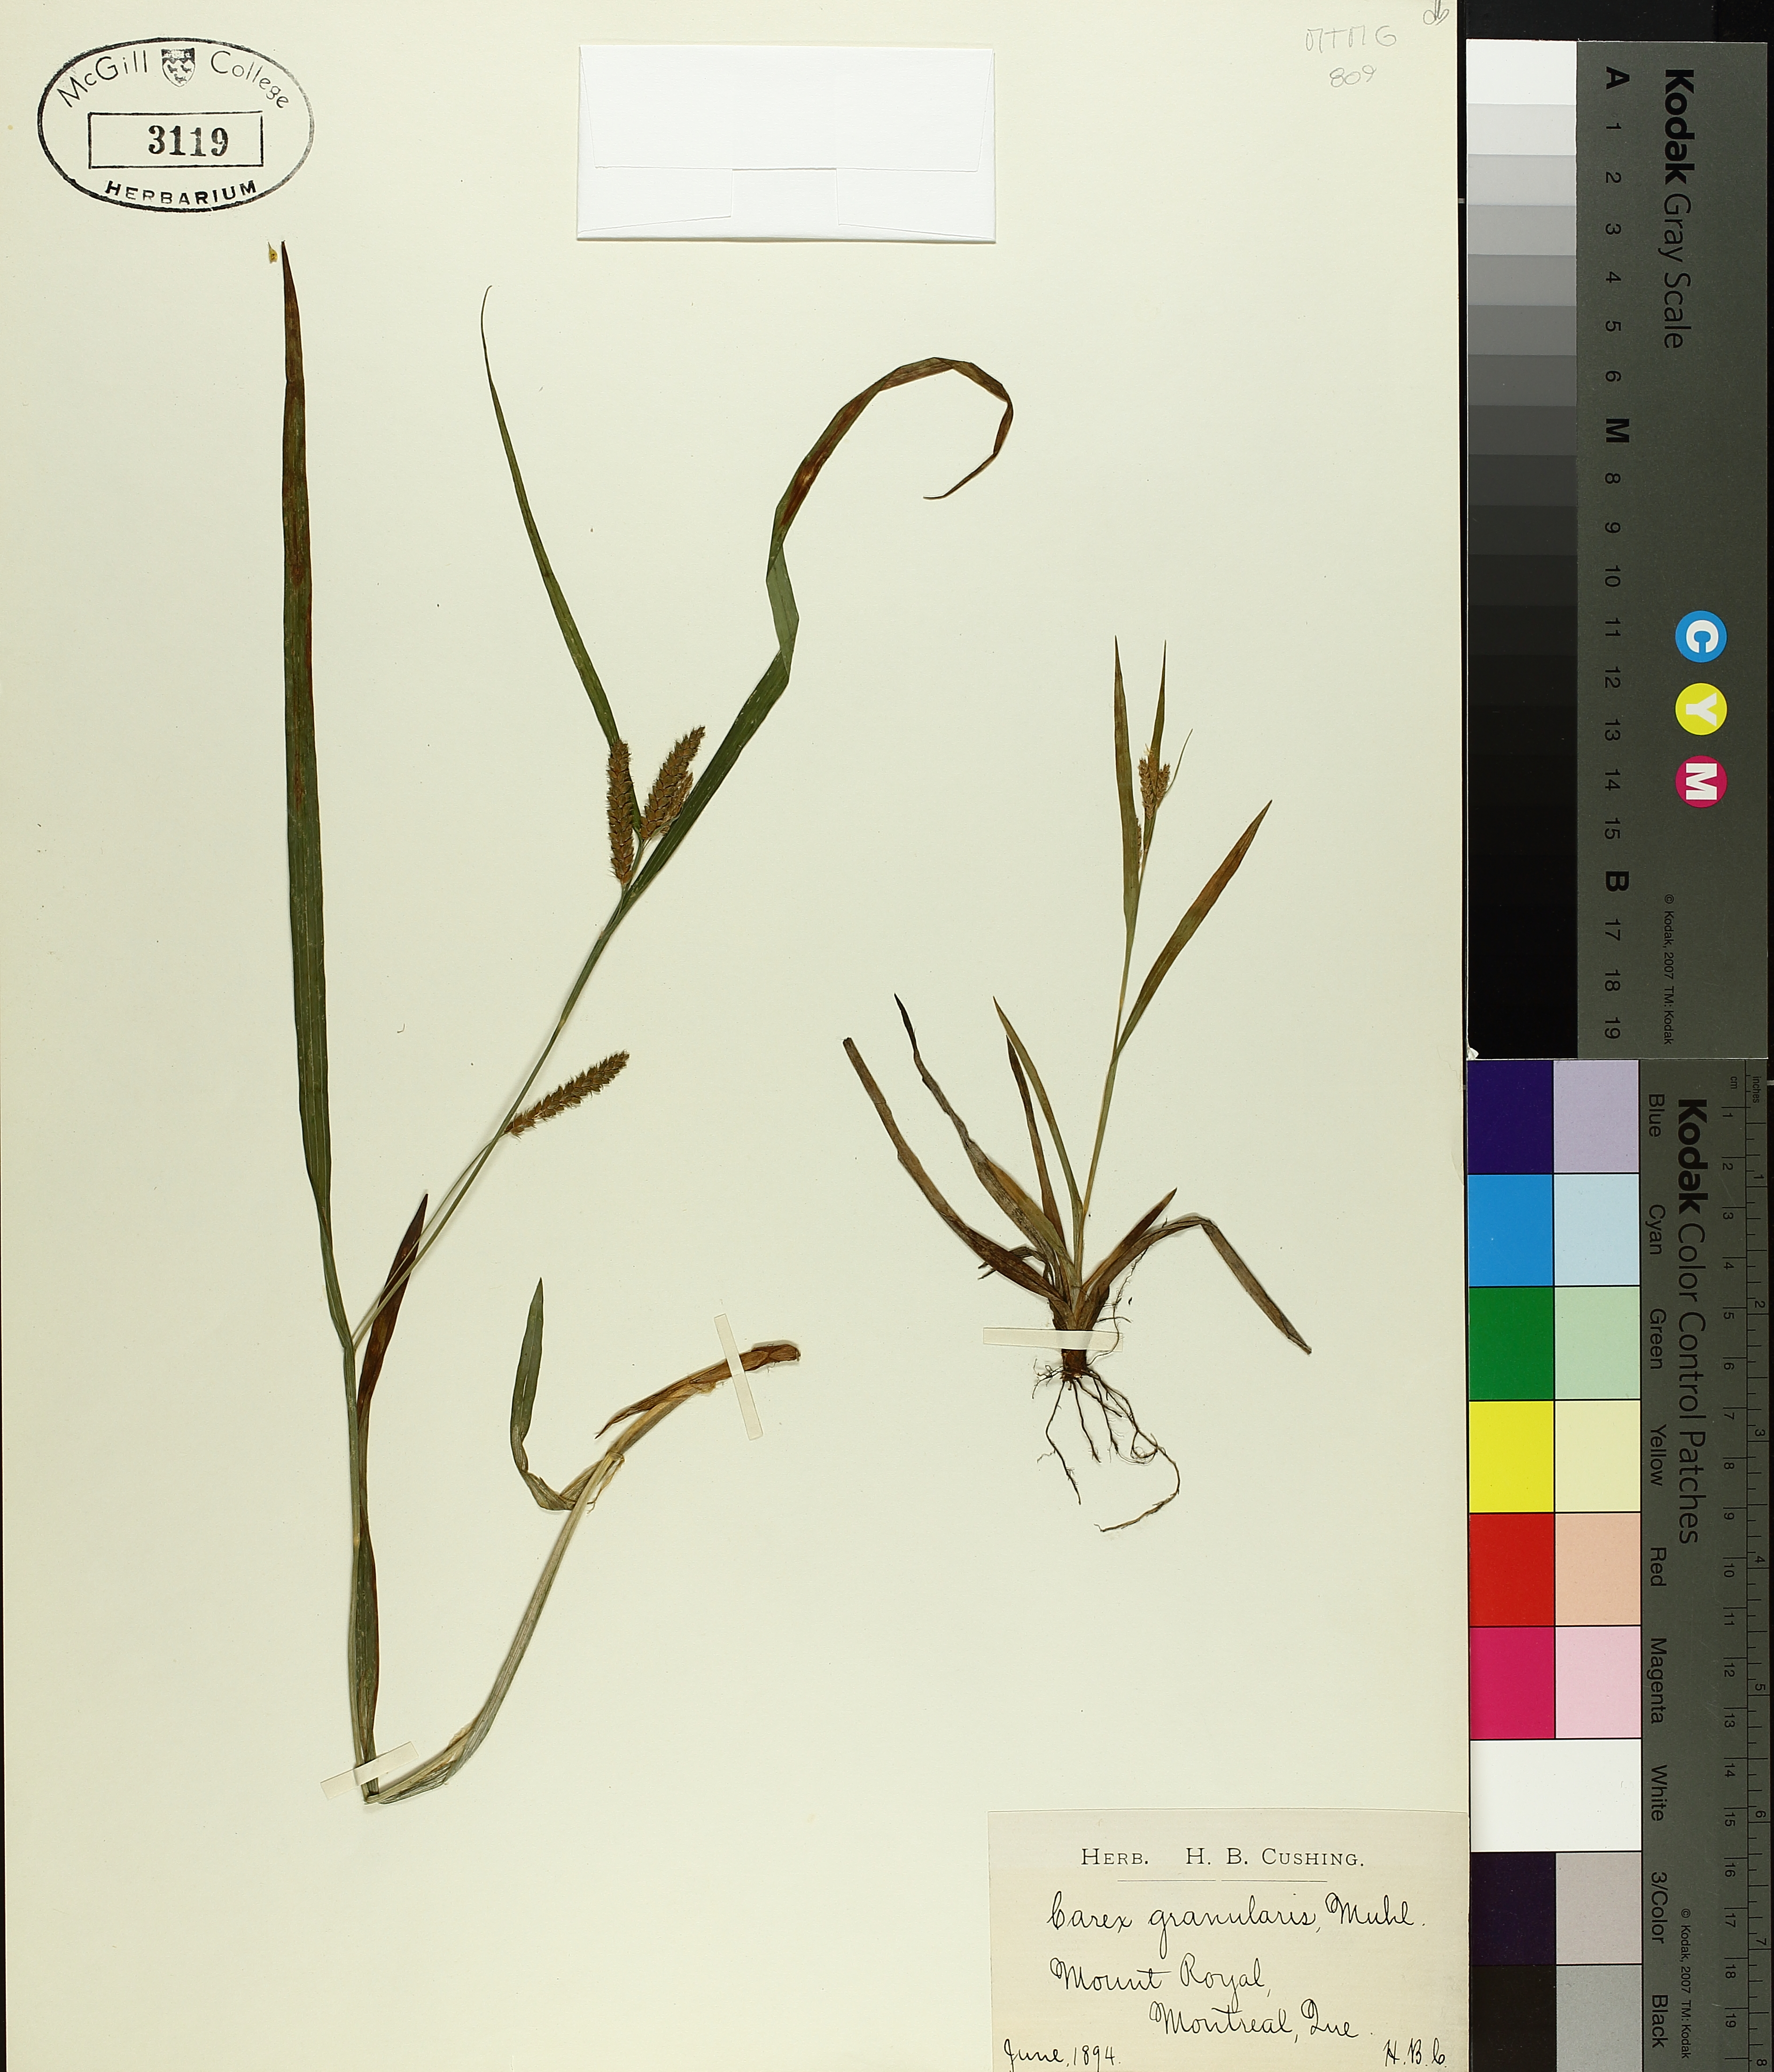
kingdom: Plantae
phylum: Tracheophyta
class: Liliopsida
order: Poales
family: Cyperaceae
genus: Carex
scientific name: Carex granularis
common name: Granular sedge
